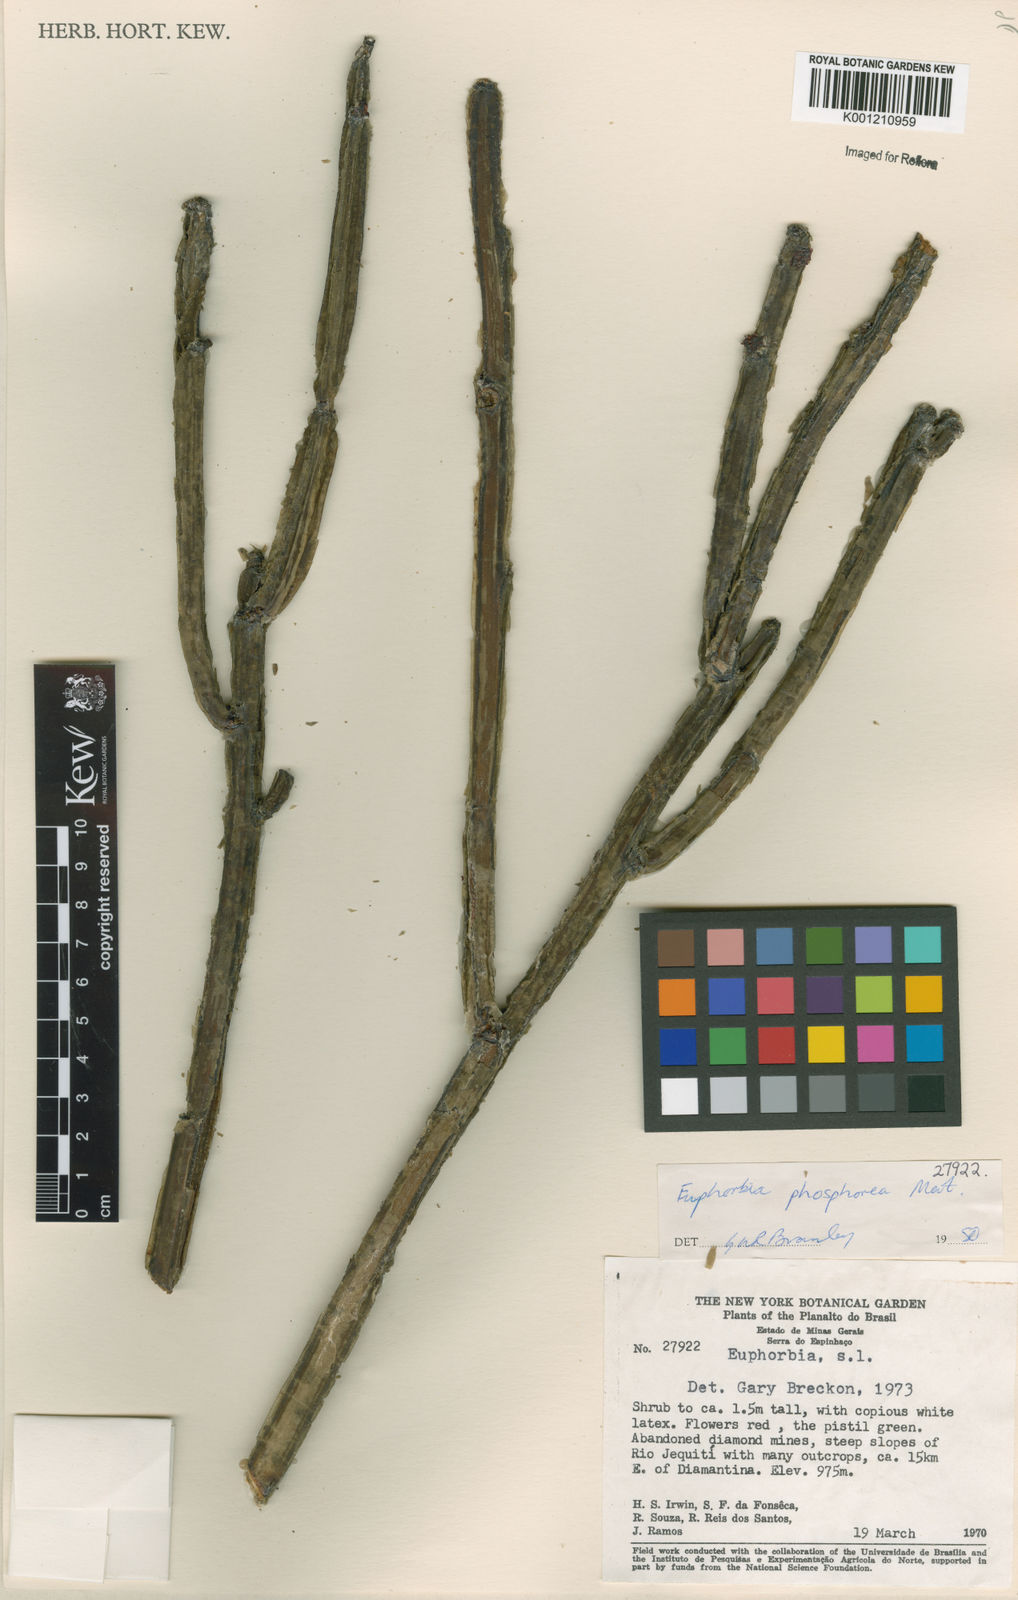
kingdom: Plantae
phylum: Tracheophyta
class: Magnoliopsida
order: Malpighiales
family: Euphorbiaceae
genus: Euphorbia
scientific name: Euphorbia phosphorea
